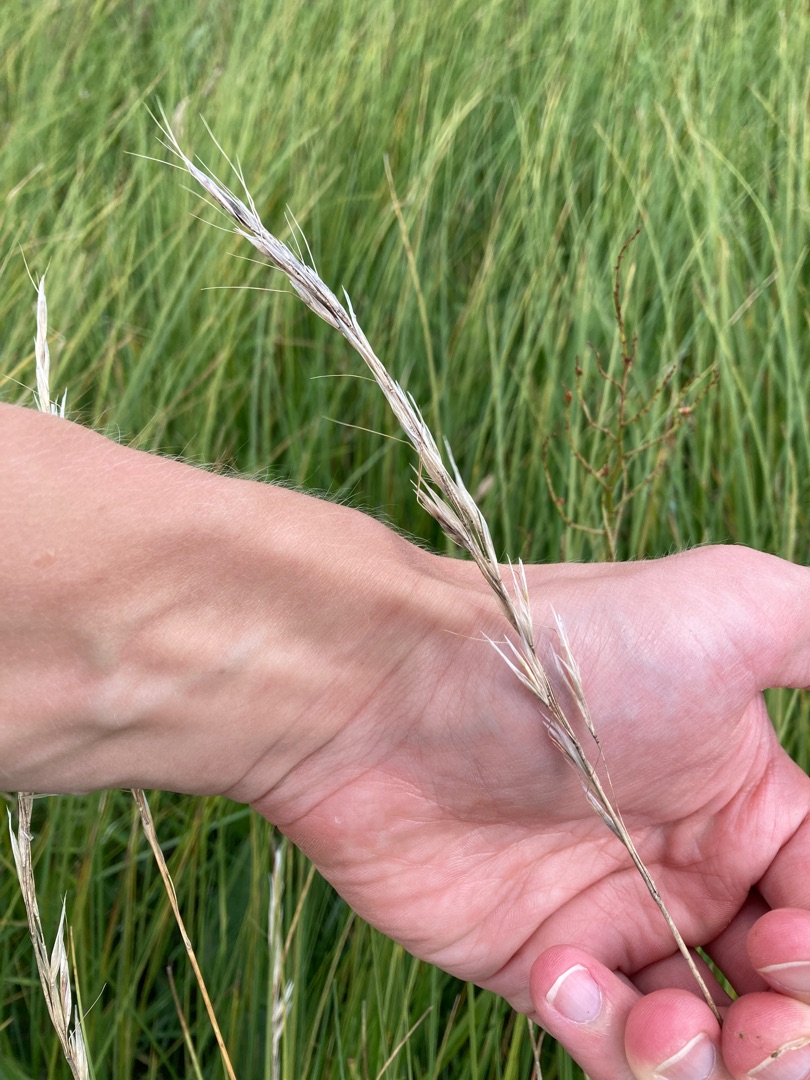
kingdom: Plantae
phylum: Tracheophyta
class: Liliopsida
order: Poales
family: Poaceae
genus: Avenula
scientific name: Avenula pubescens
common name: Dunet havre
